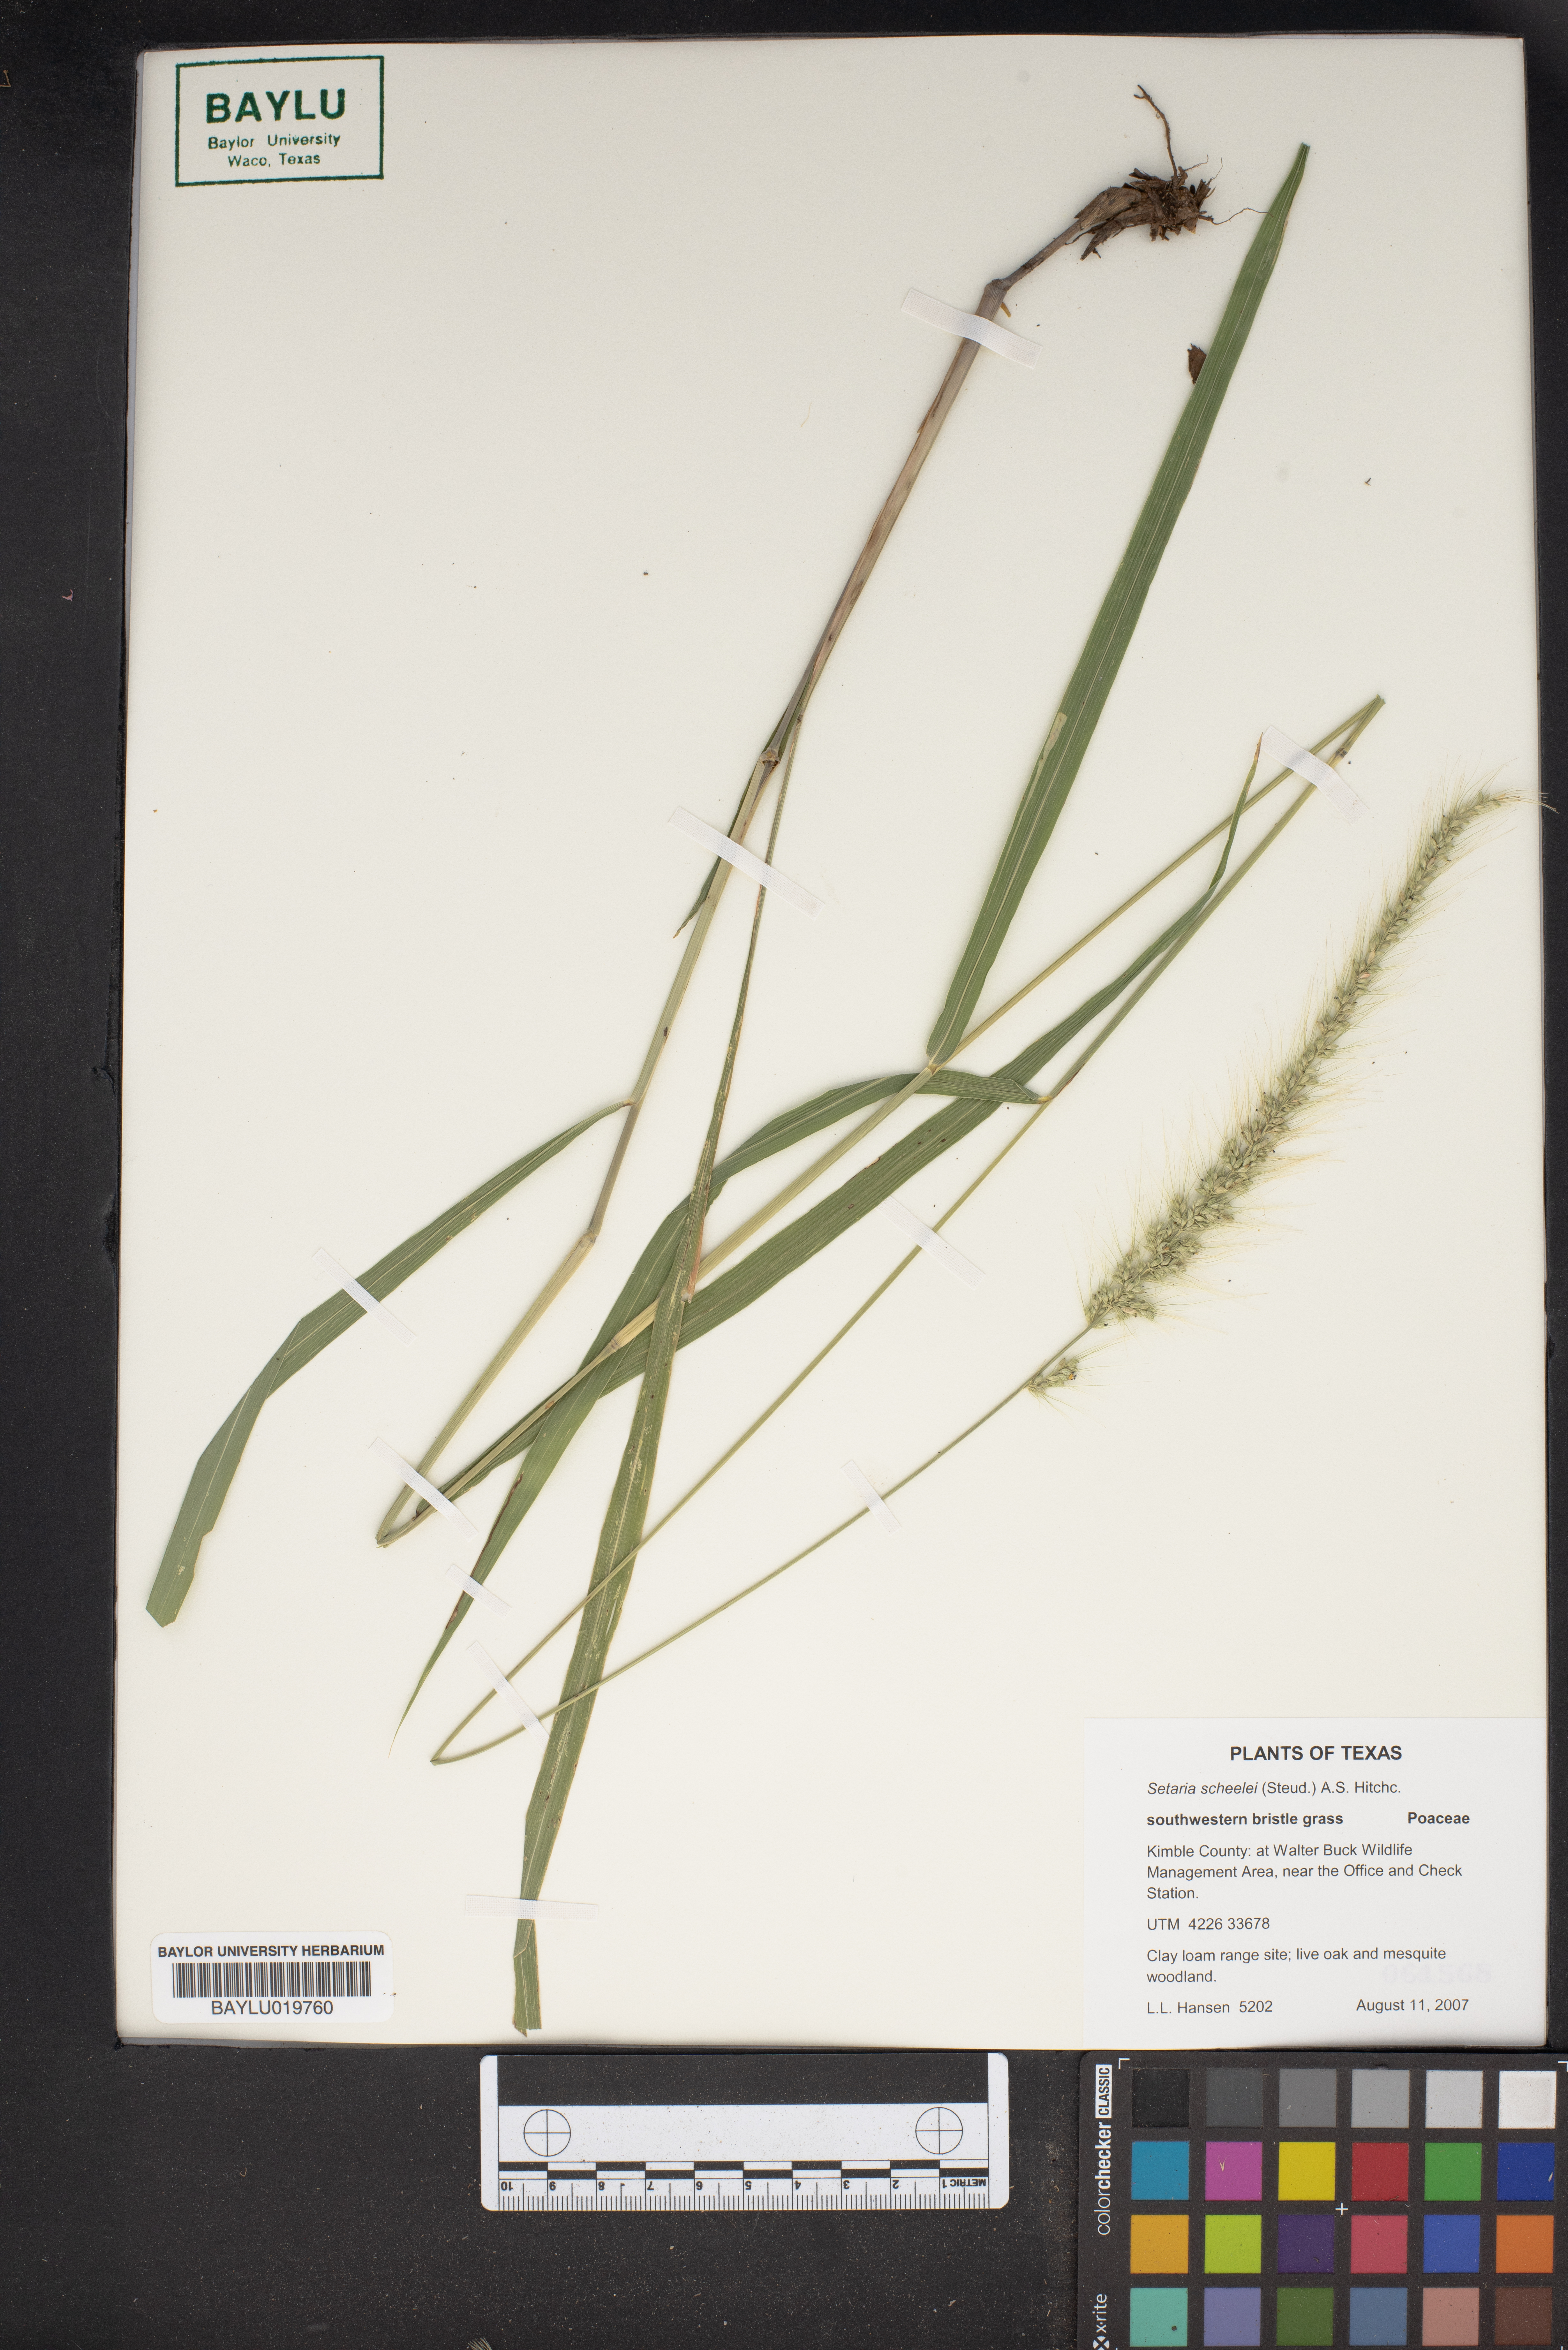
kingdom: Plantae
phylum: Tracheophyta
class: Liliopsida
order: Poales
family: Poaceae
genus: Setaria
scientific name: Setaria scheelei
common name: Southwestern bristle grass
